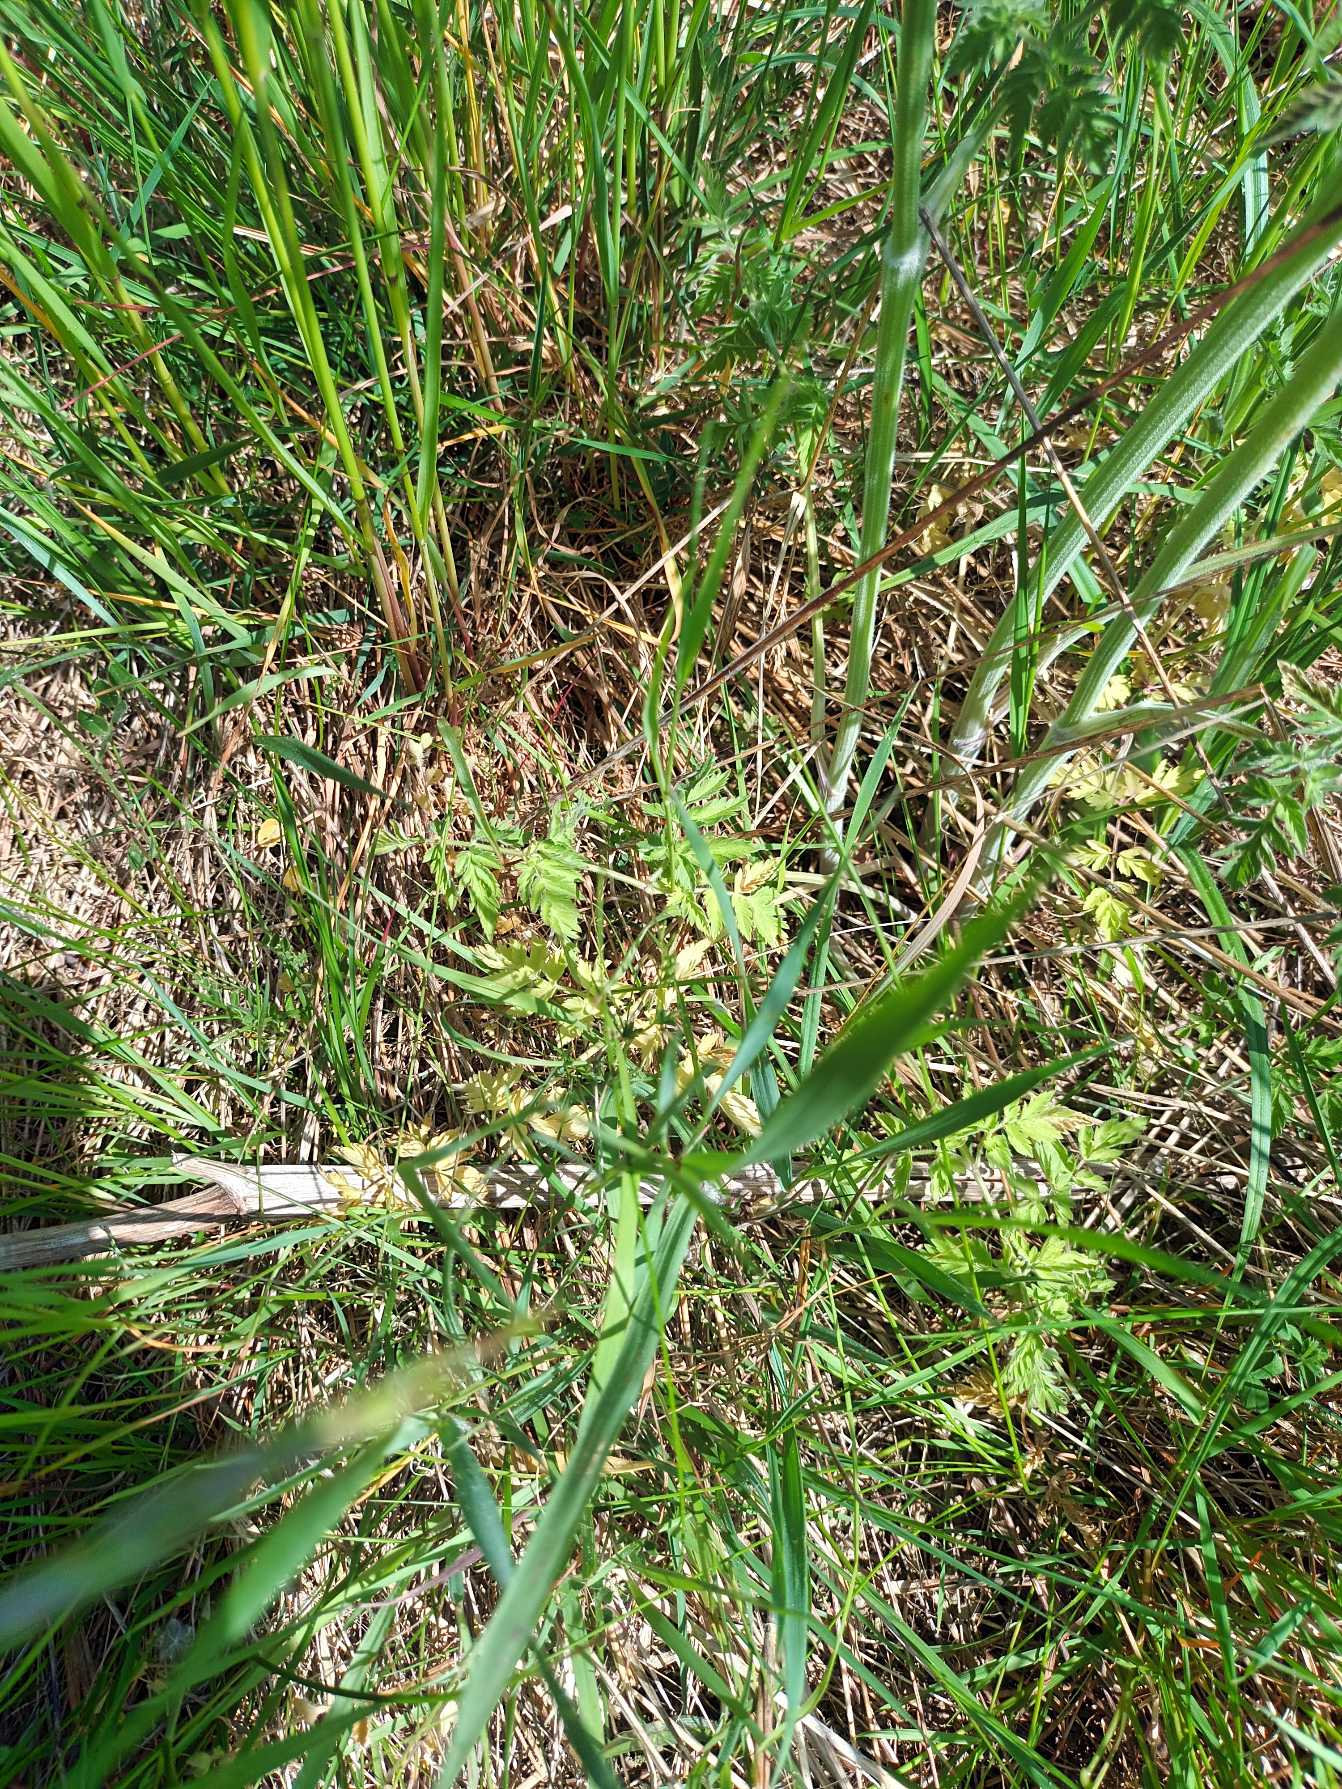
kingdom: Plantae
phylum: Tracheophyta
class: Magnoliopsida
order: Apiales
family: Apiaceae
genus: Anthriscus
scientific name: Anthriscus sylvestris
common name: Vild kørvel
